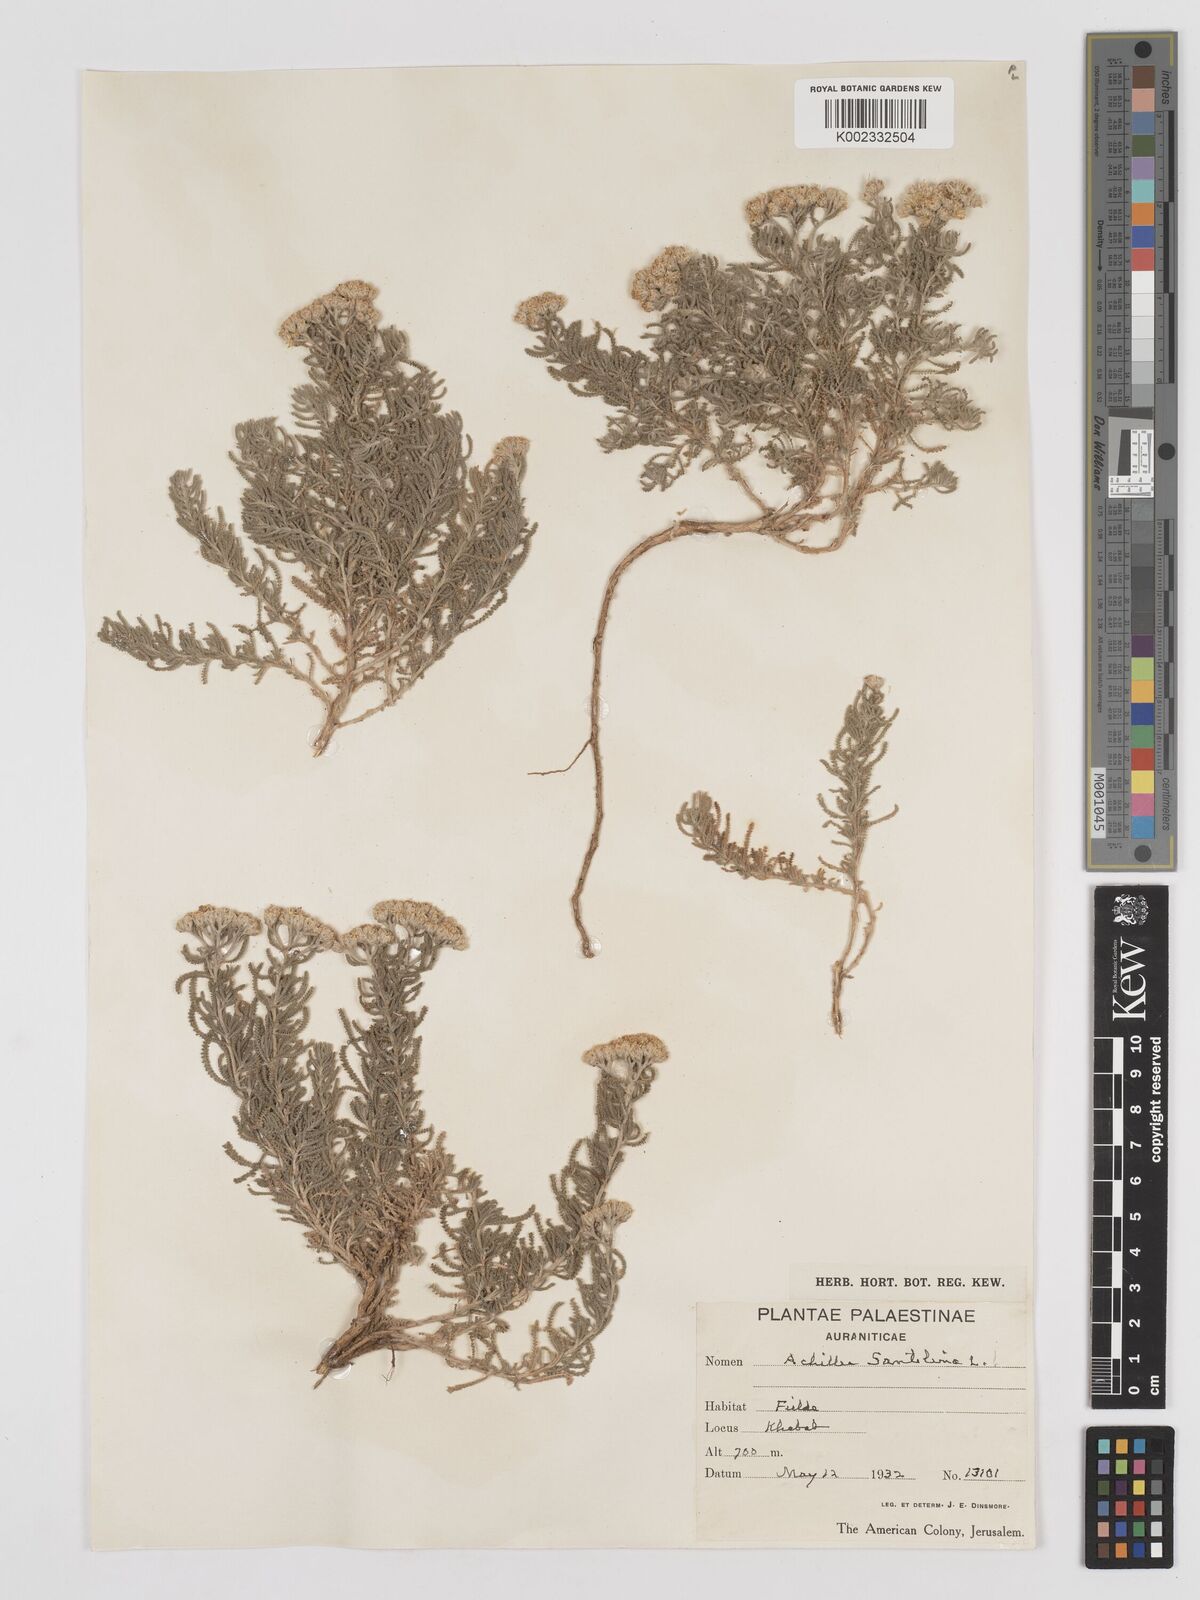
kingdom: Plantae
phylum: Tracheophyta
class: Magnoliopsida
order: Asterales
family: Asteraceae
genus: Achillea
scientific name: Achillea tenuifolia
